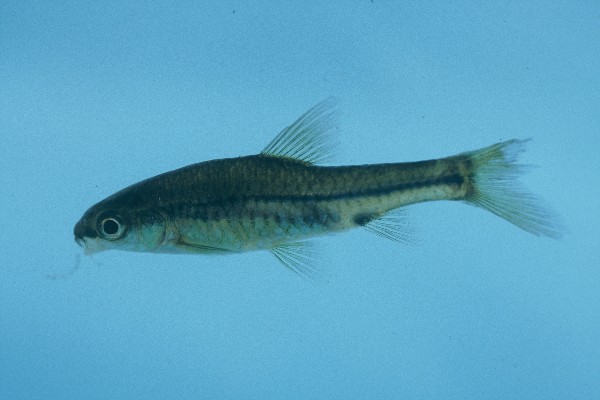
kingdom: Animalia
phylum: Chordata
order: Cypriniformes
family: Cyprinidae
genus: Barbus
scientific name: Barbus
